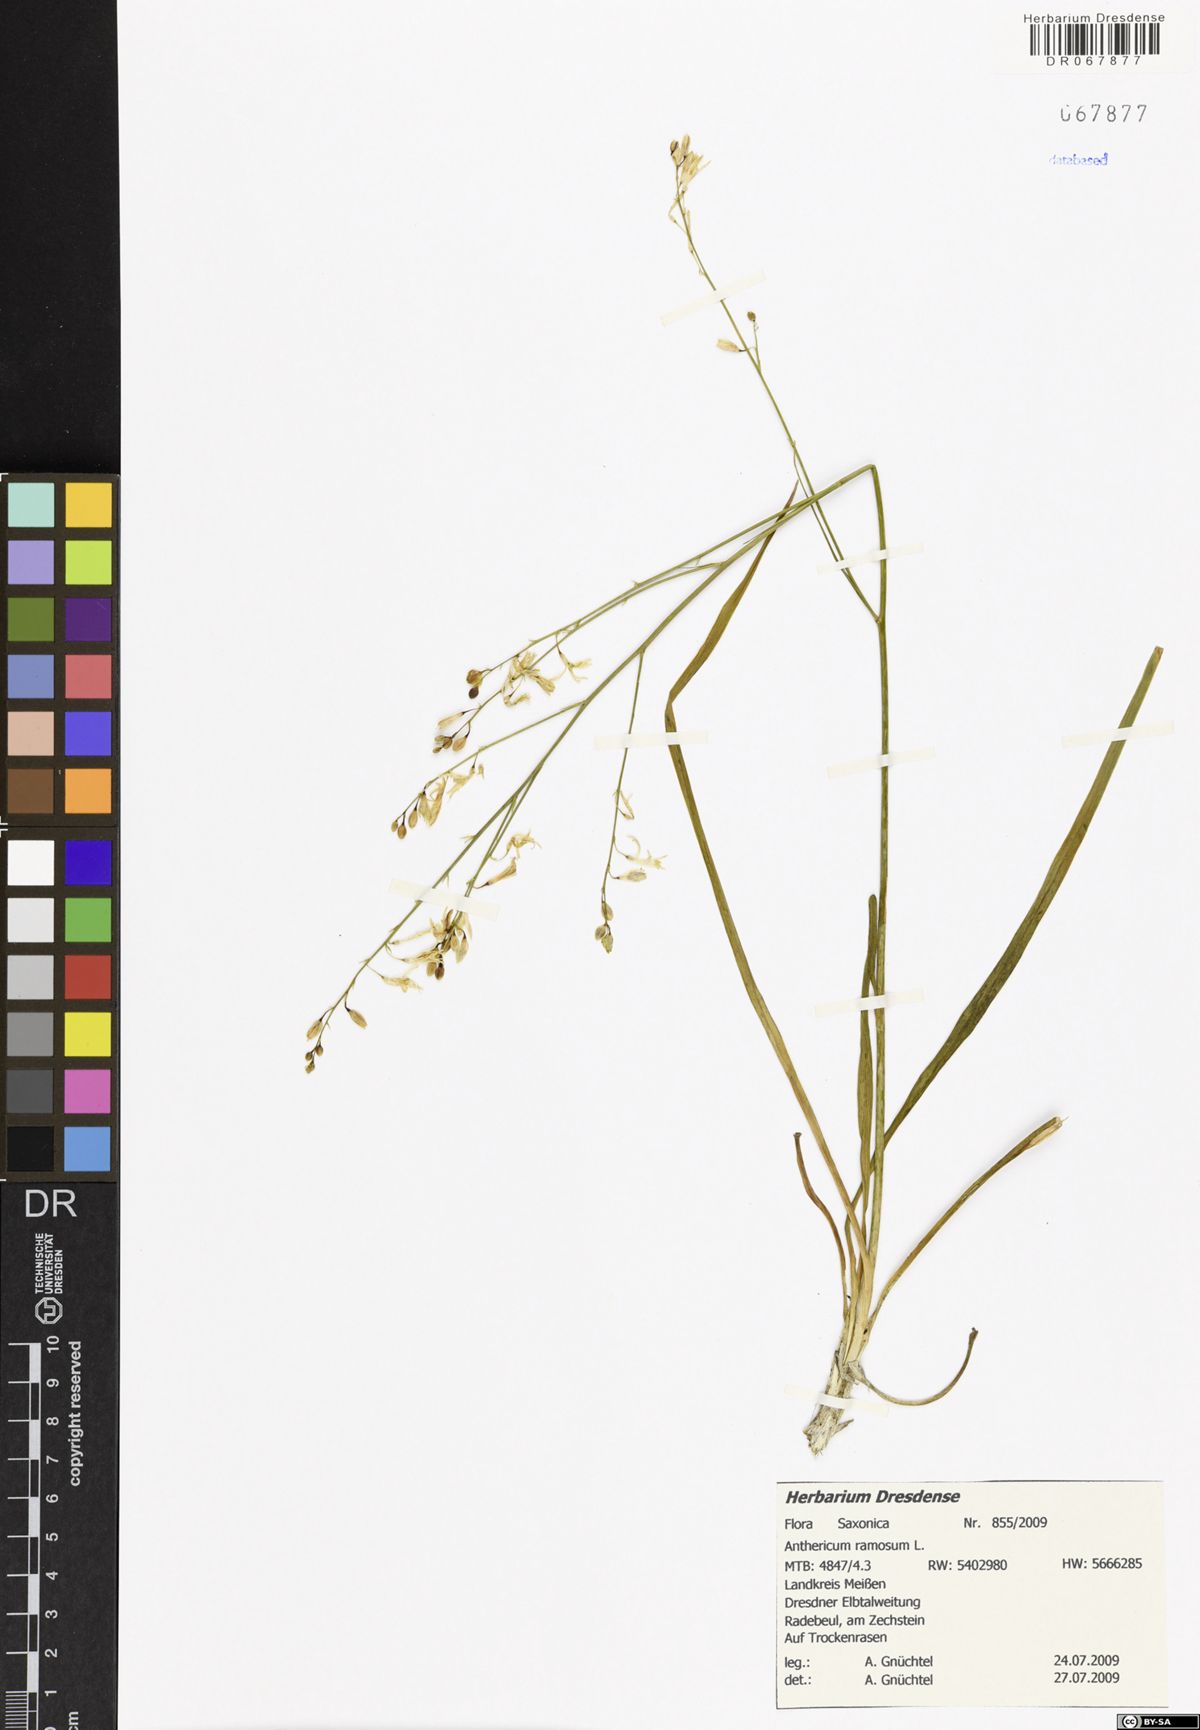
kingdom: Plantae
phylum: Tracheophyta
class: Liliopsida
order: Asparagales
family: Asparagaceae
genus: Anthericum
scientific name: Anthericum ramosum
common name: Branched st. bernard's-lily
